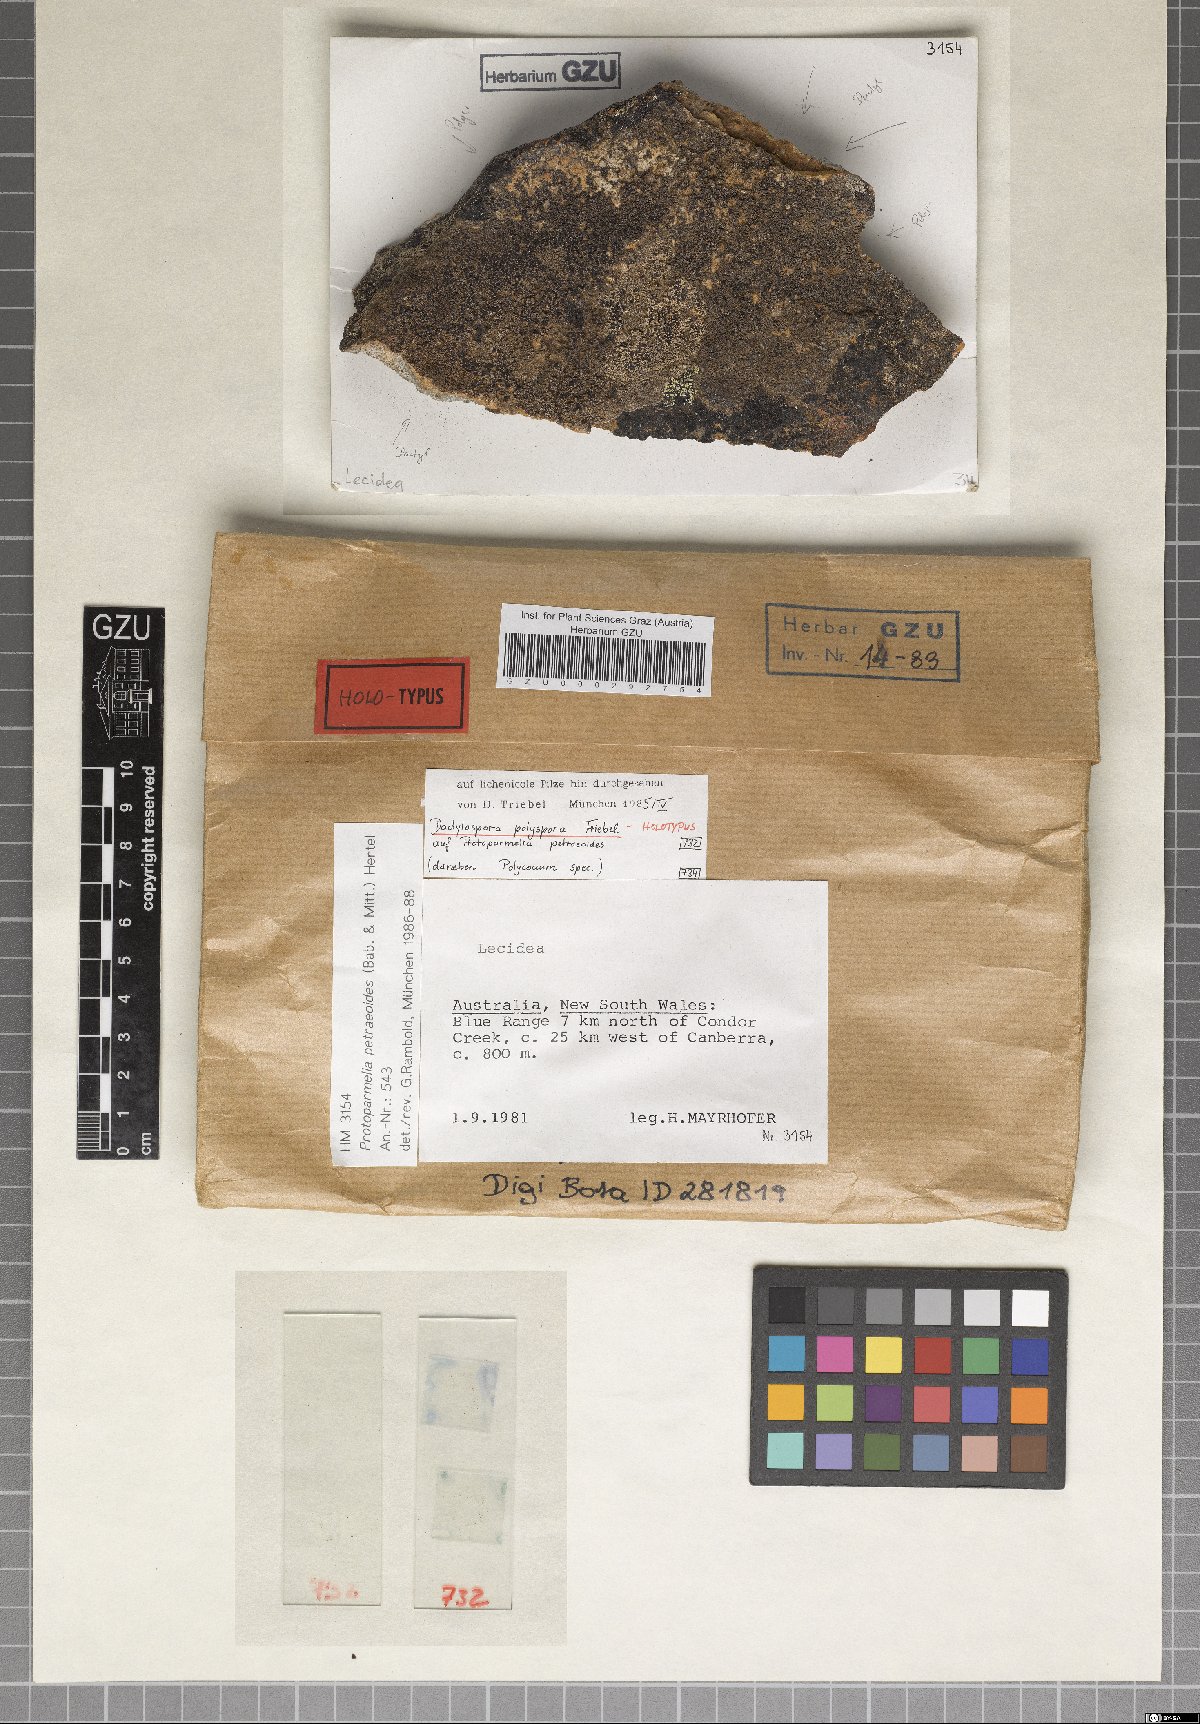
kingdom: Fungi
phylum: Ascomycota
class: Eurotiomycetes
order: Sclerococcales
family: Sclerococcaceae
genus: Sclerococcum
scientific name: Sclerococcum polysporum
